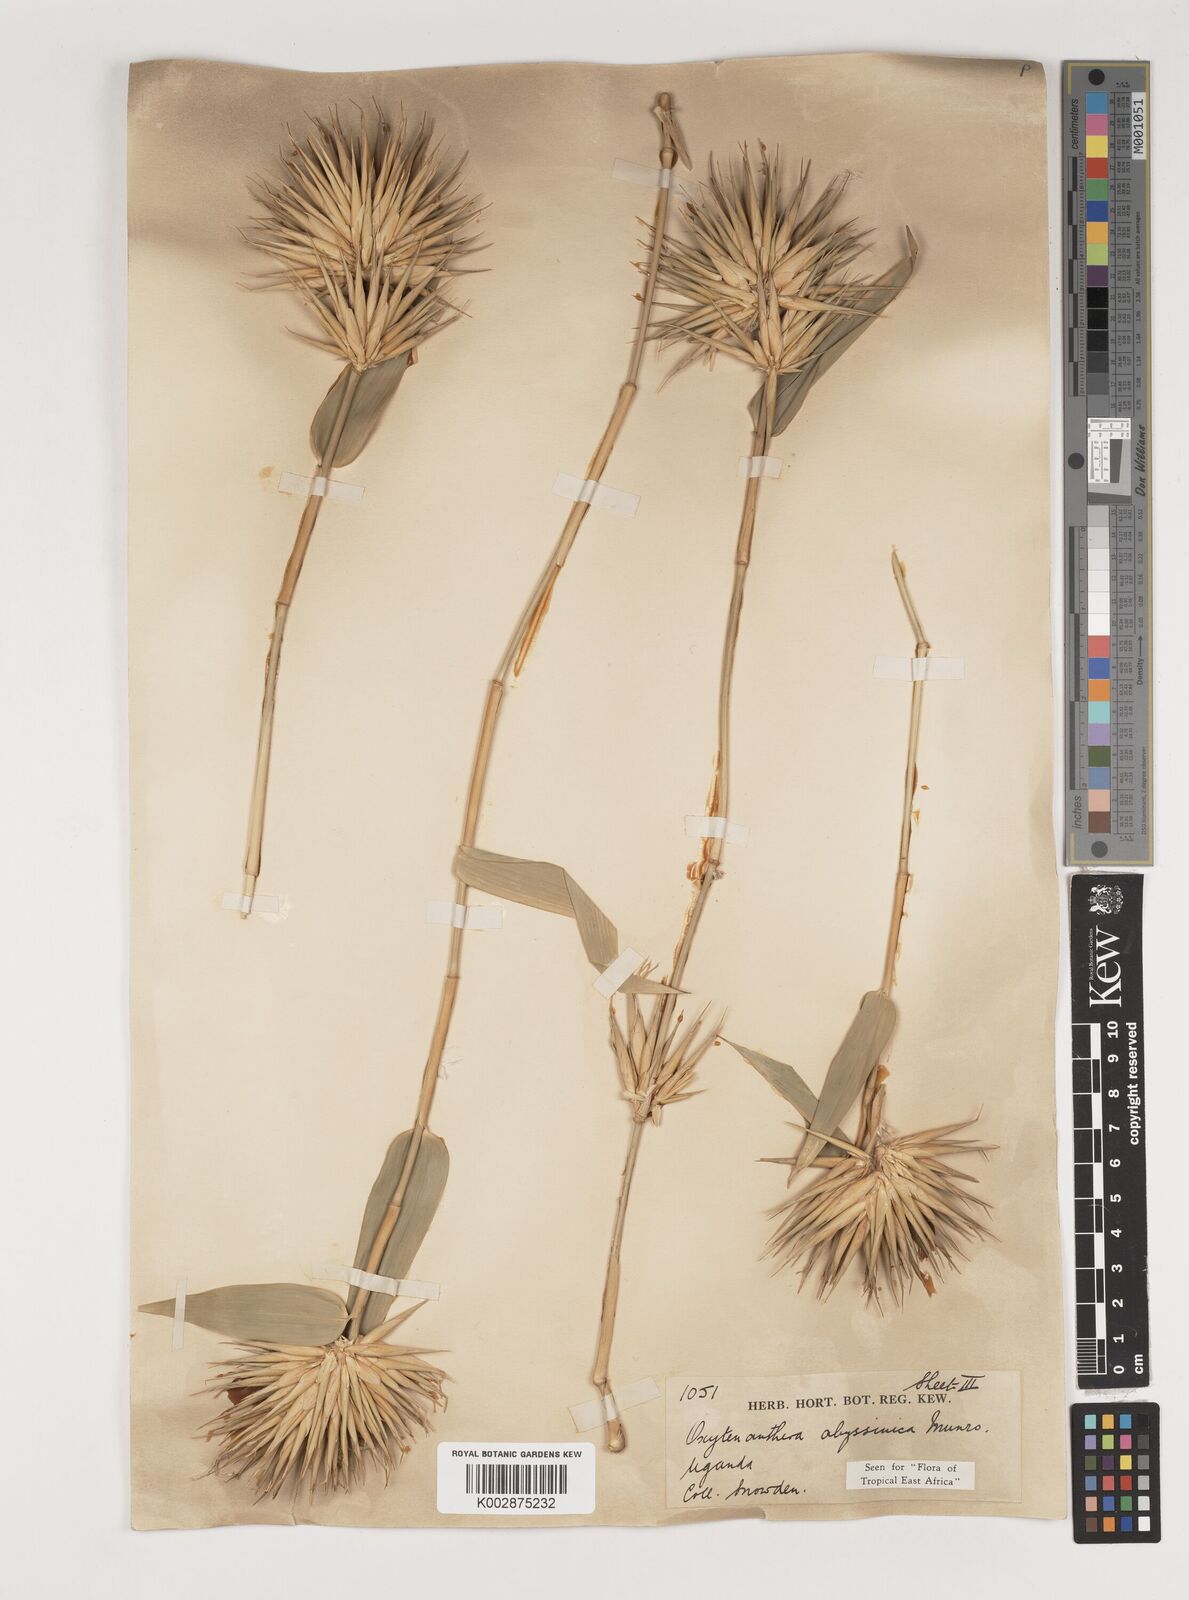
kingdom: Plantae
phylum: Tracheophyta
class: Liliopsida
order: Poales
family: Poaceae
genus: Oxytenanthera
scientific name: Oxytenanthera abyssinica
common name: Wine bamboo
